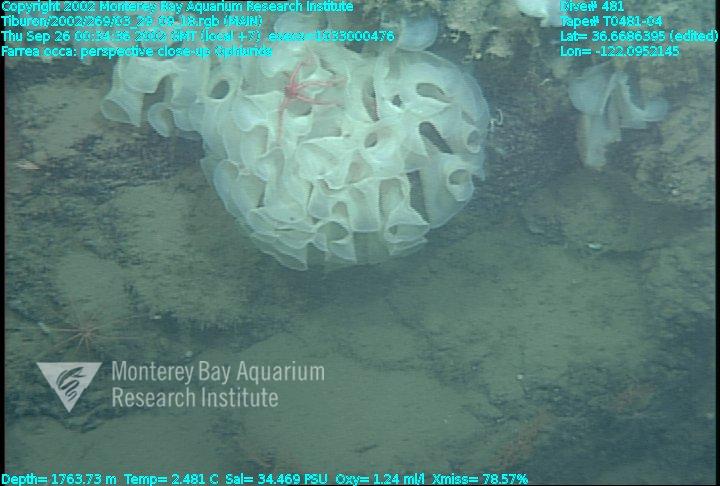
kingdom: Animalia
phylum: Porifera
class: Hexactinellida
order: Sceptrulophora
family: Farreidae
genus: Farrea
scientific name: Farrea occa
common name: Reversed glass sponge
